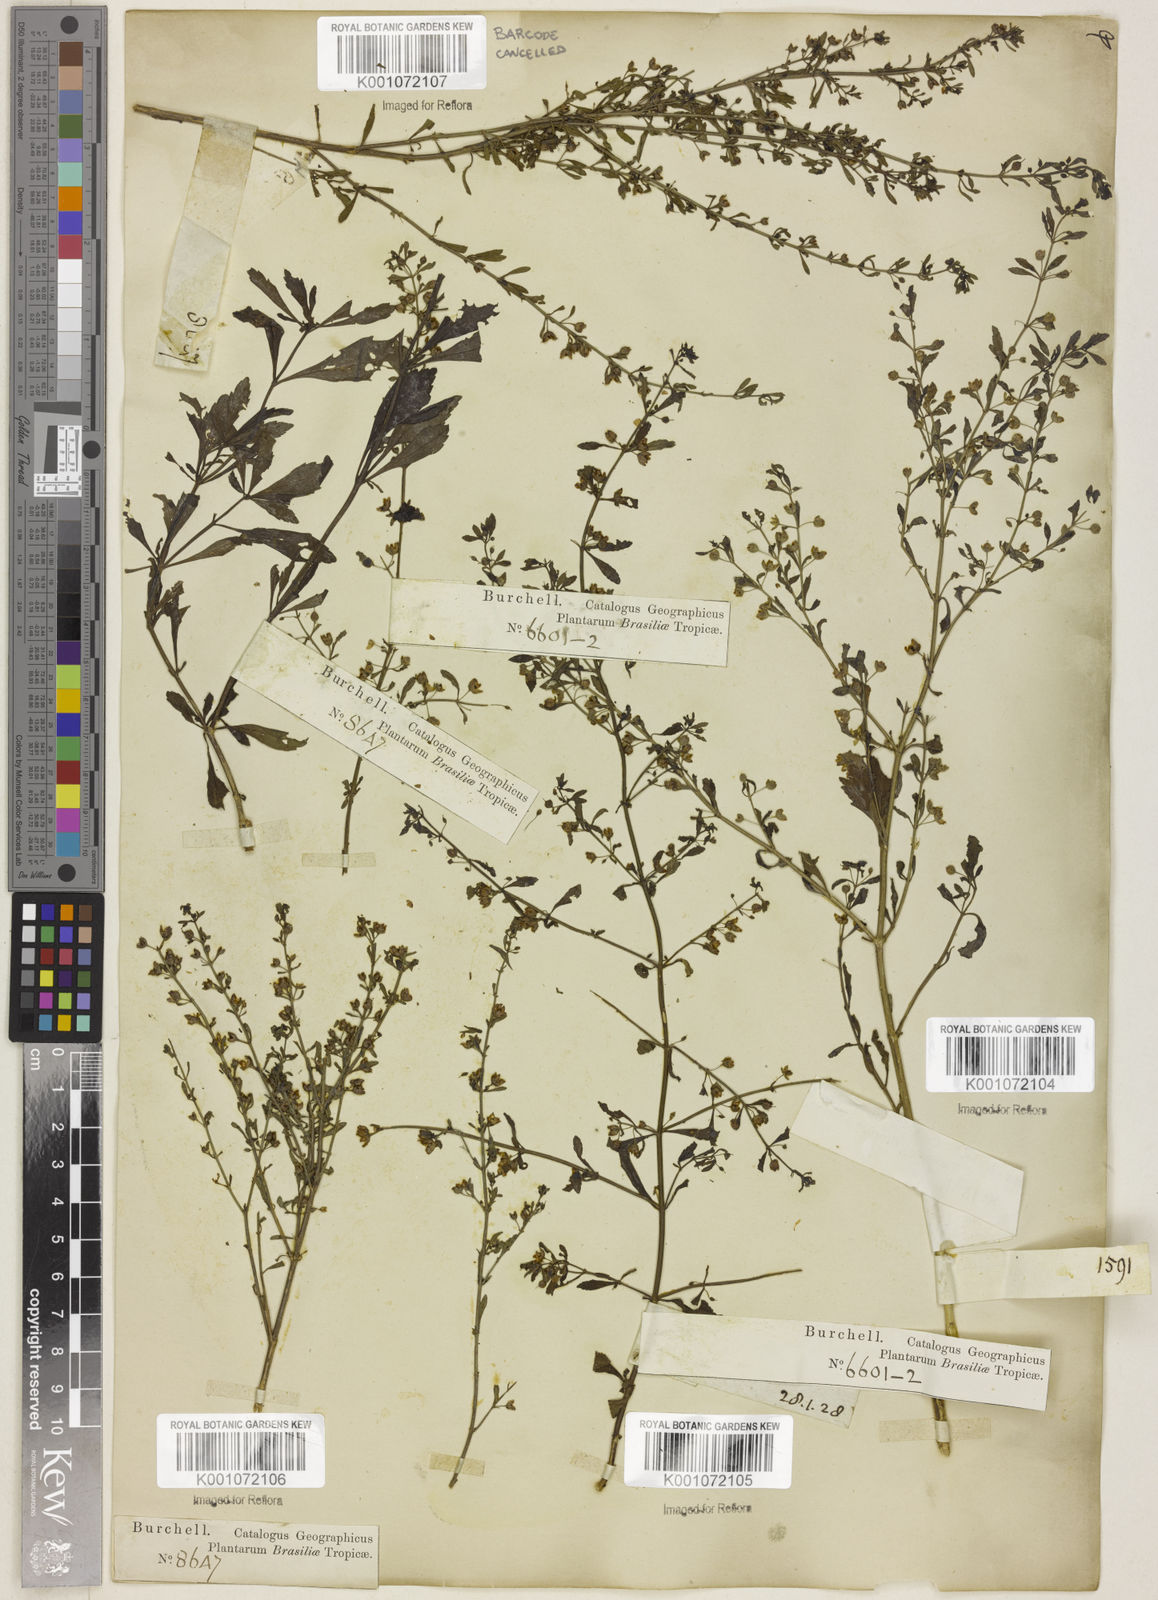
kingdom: Plantae
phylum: Tracheophyta
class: Magnoliopsida
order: Lamiales
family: Plantaginaceae
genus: Scoparia
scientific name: Scoparia dulcis
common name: Scoparia-weed
